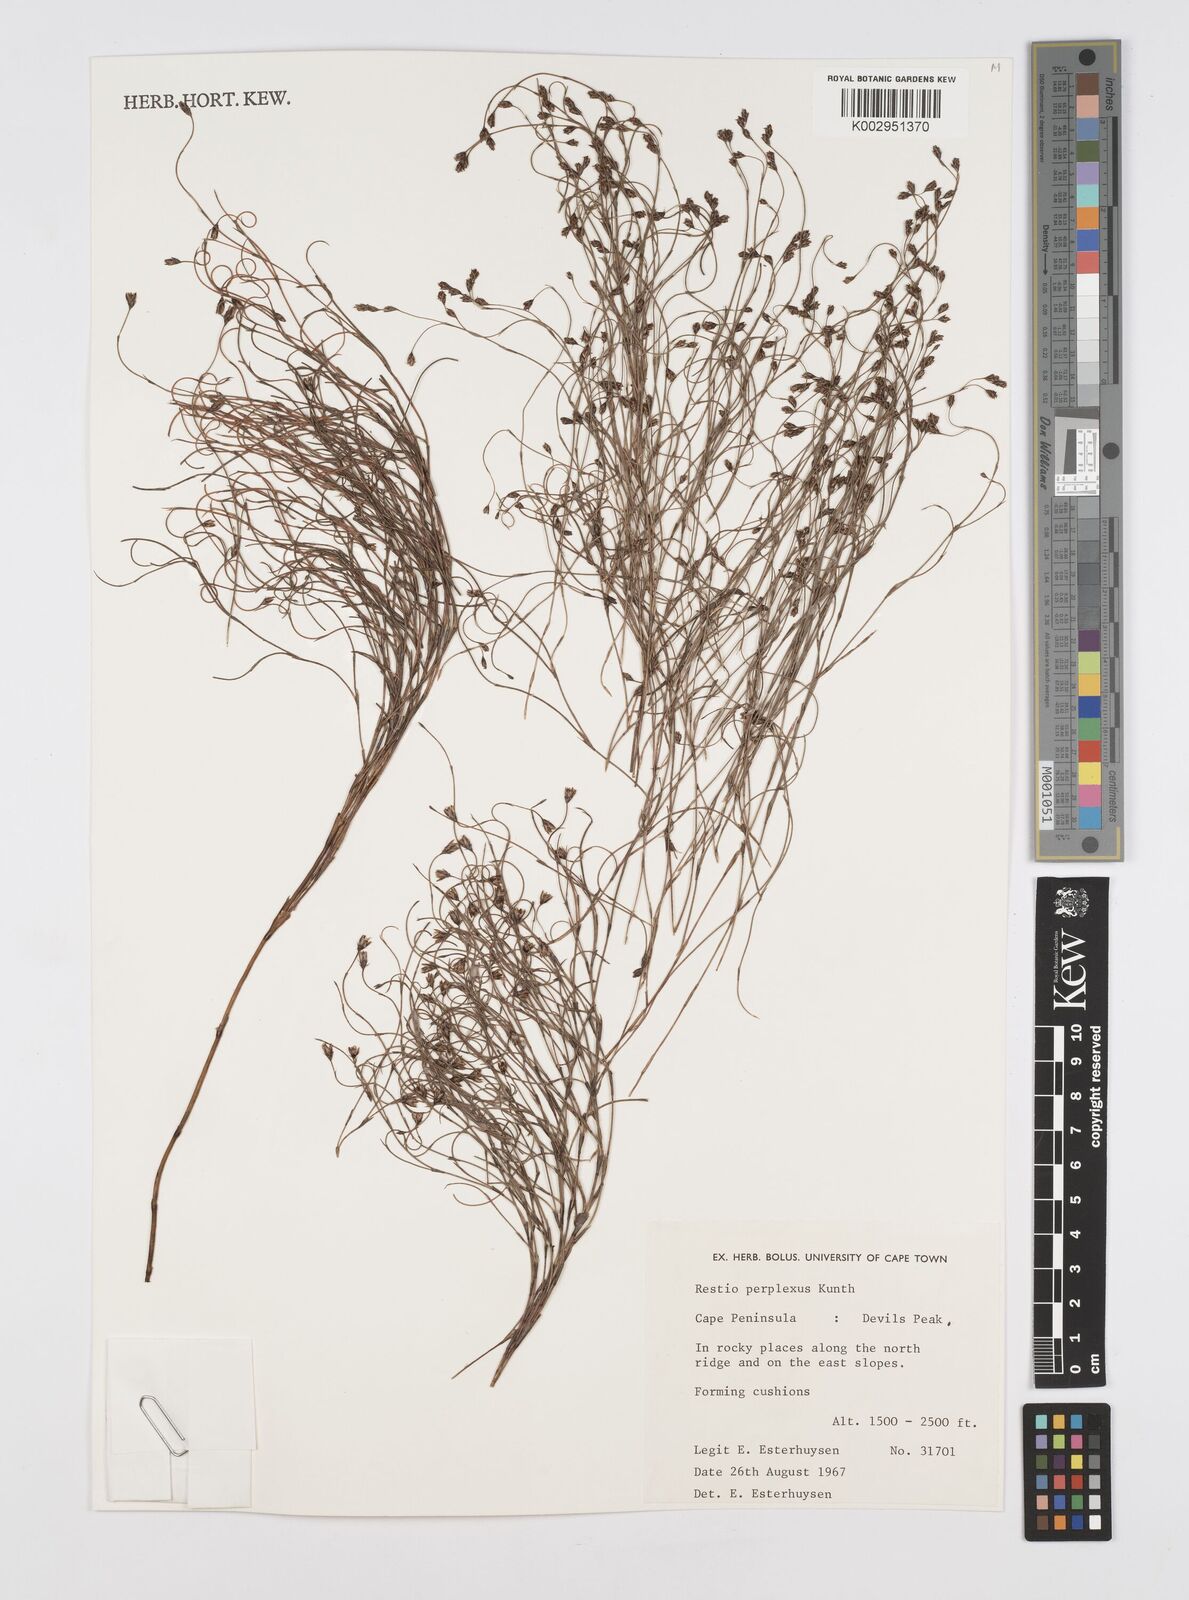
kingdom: Plantae
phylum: Tracheophyta
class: Liliopsida
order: Poales
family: Restionaceae
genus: Restio
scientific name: Restio perplexus
